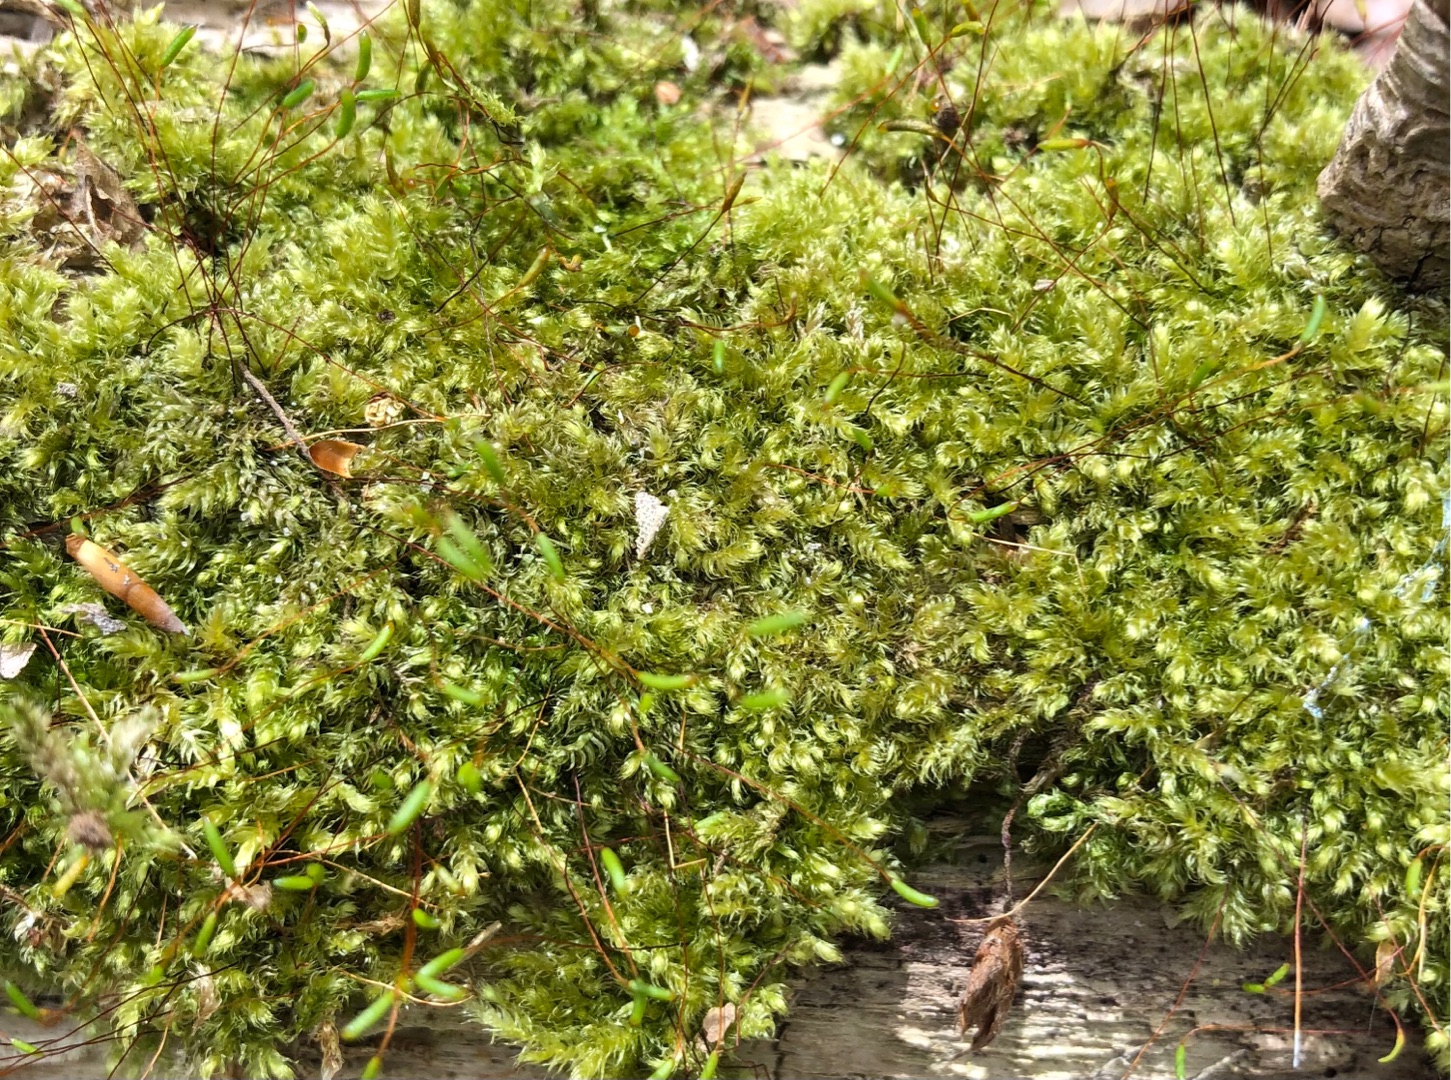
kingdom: Plantae
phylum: Bryophyta
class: Bryopsida
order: Hypnales
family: Plagiotheciaceae
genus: Herzogiella
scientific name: Herzogiella seligeri
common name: Stub-pølsekapsel
